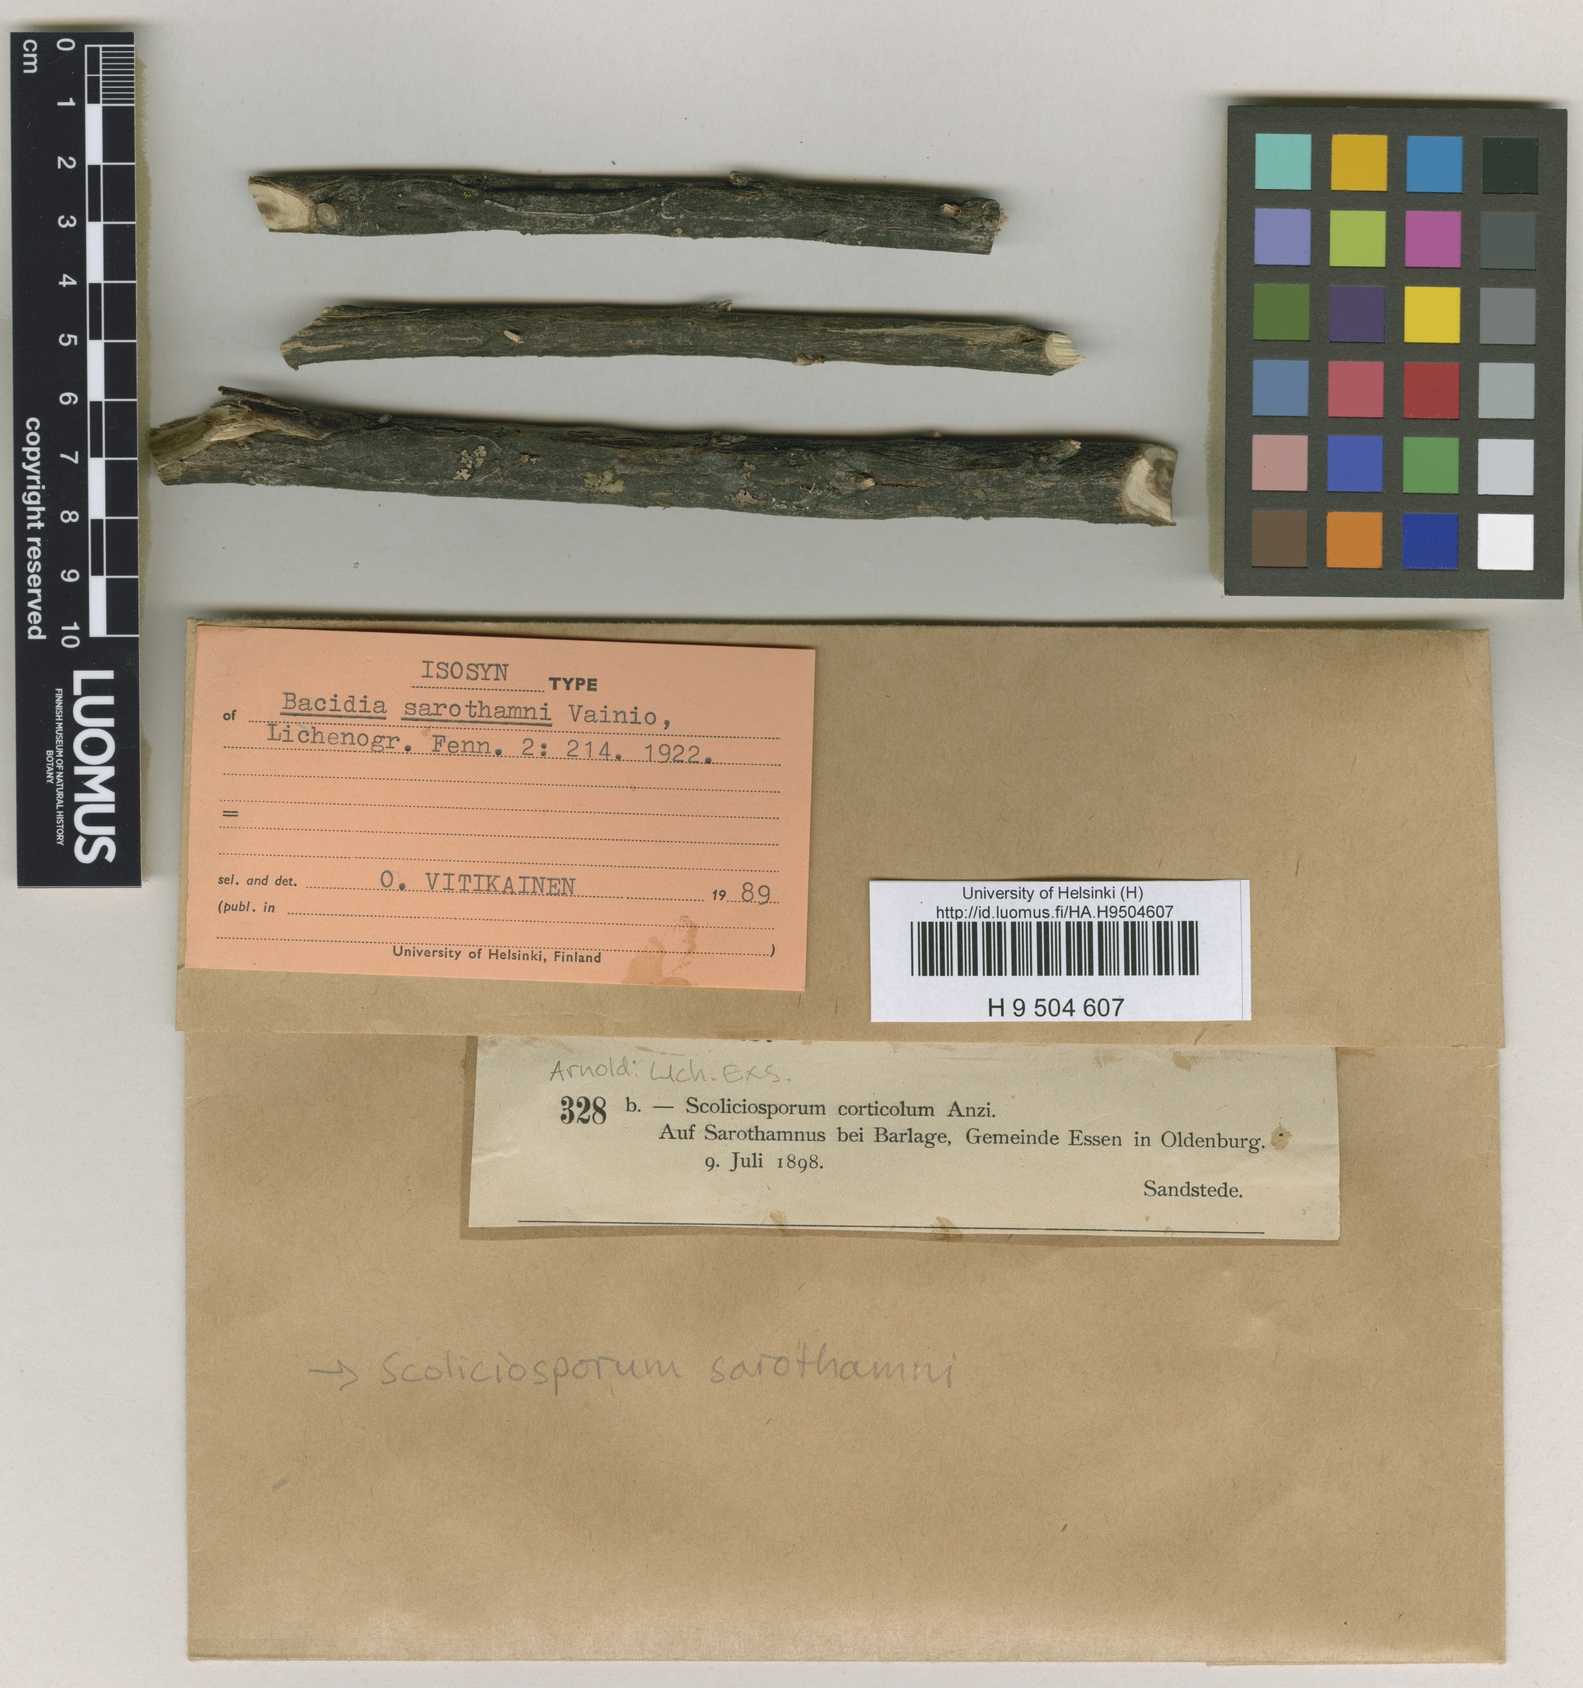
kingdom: Fungi
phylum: Ascomycota
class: Lecanoromycetes
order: Lecanorales
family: Scoliciosporaceae
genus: Scoliciosporum
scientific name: Scoliciosporum sarothamni
